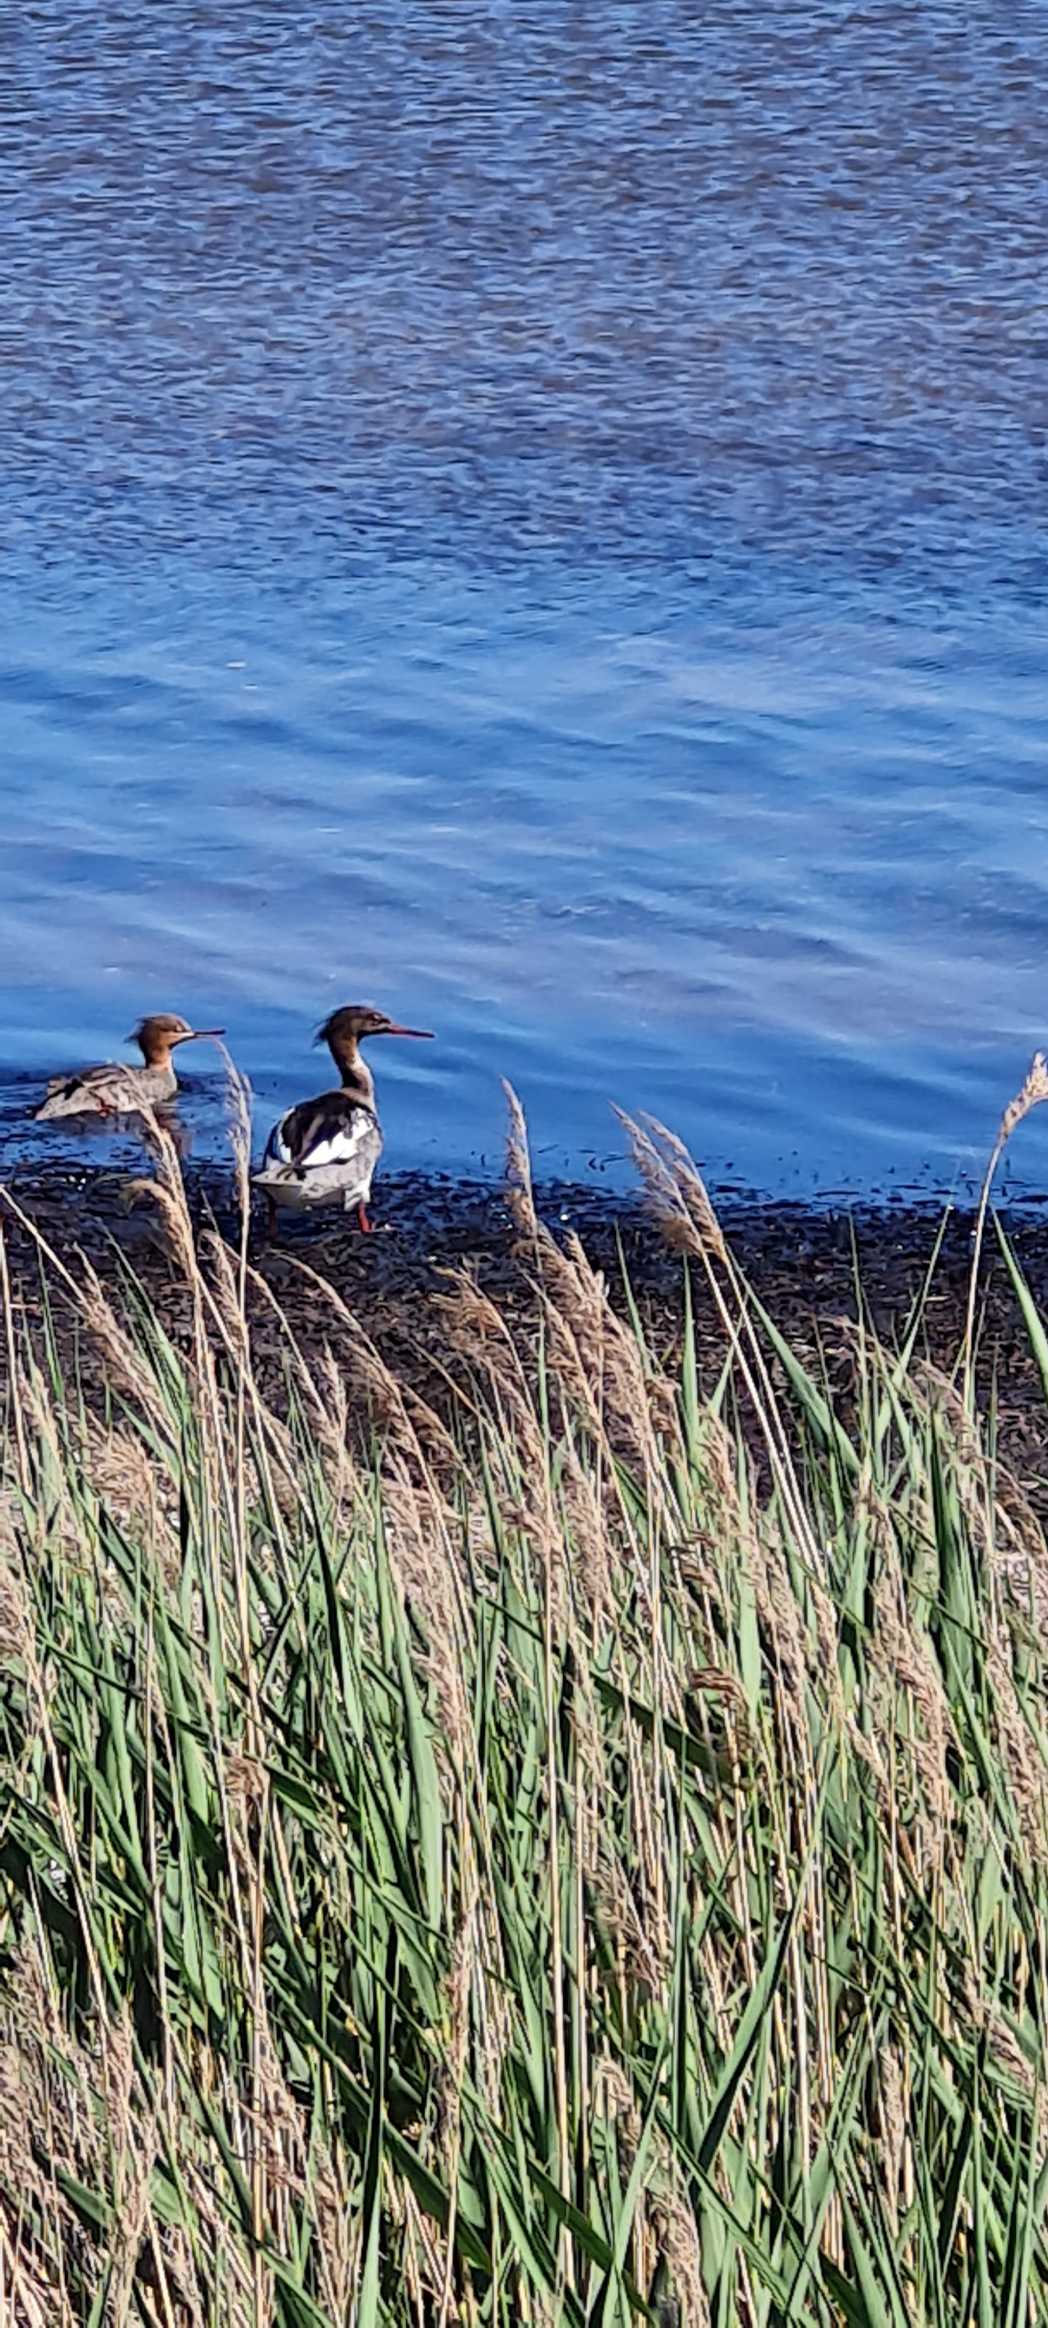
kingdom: Animalia
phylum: Chordata
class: Aves
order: Anseriformes
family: Anatidae
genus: Mergus
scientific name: Mergus serrator
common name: Toppet skallesluger
